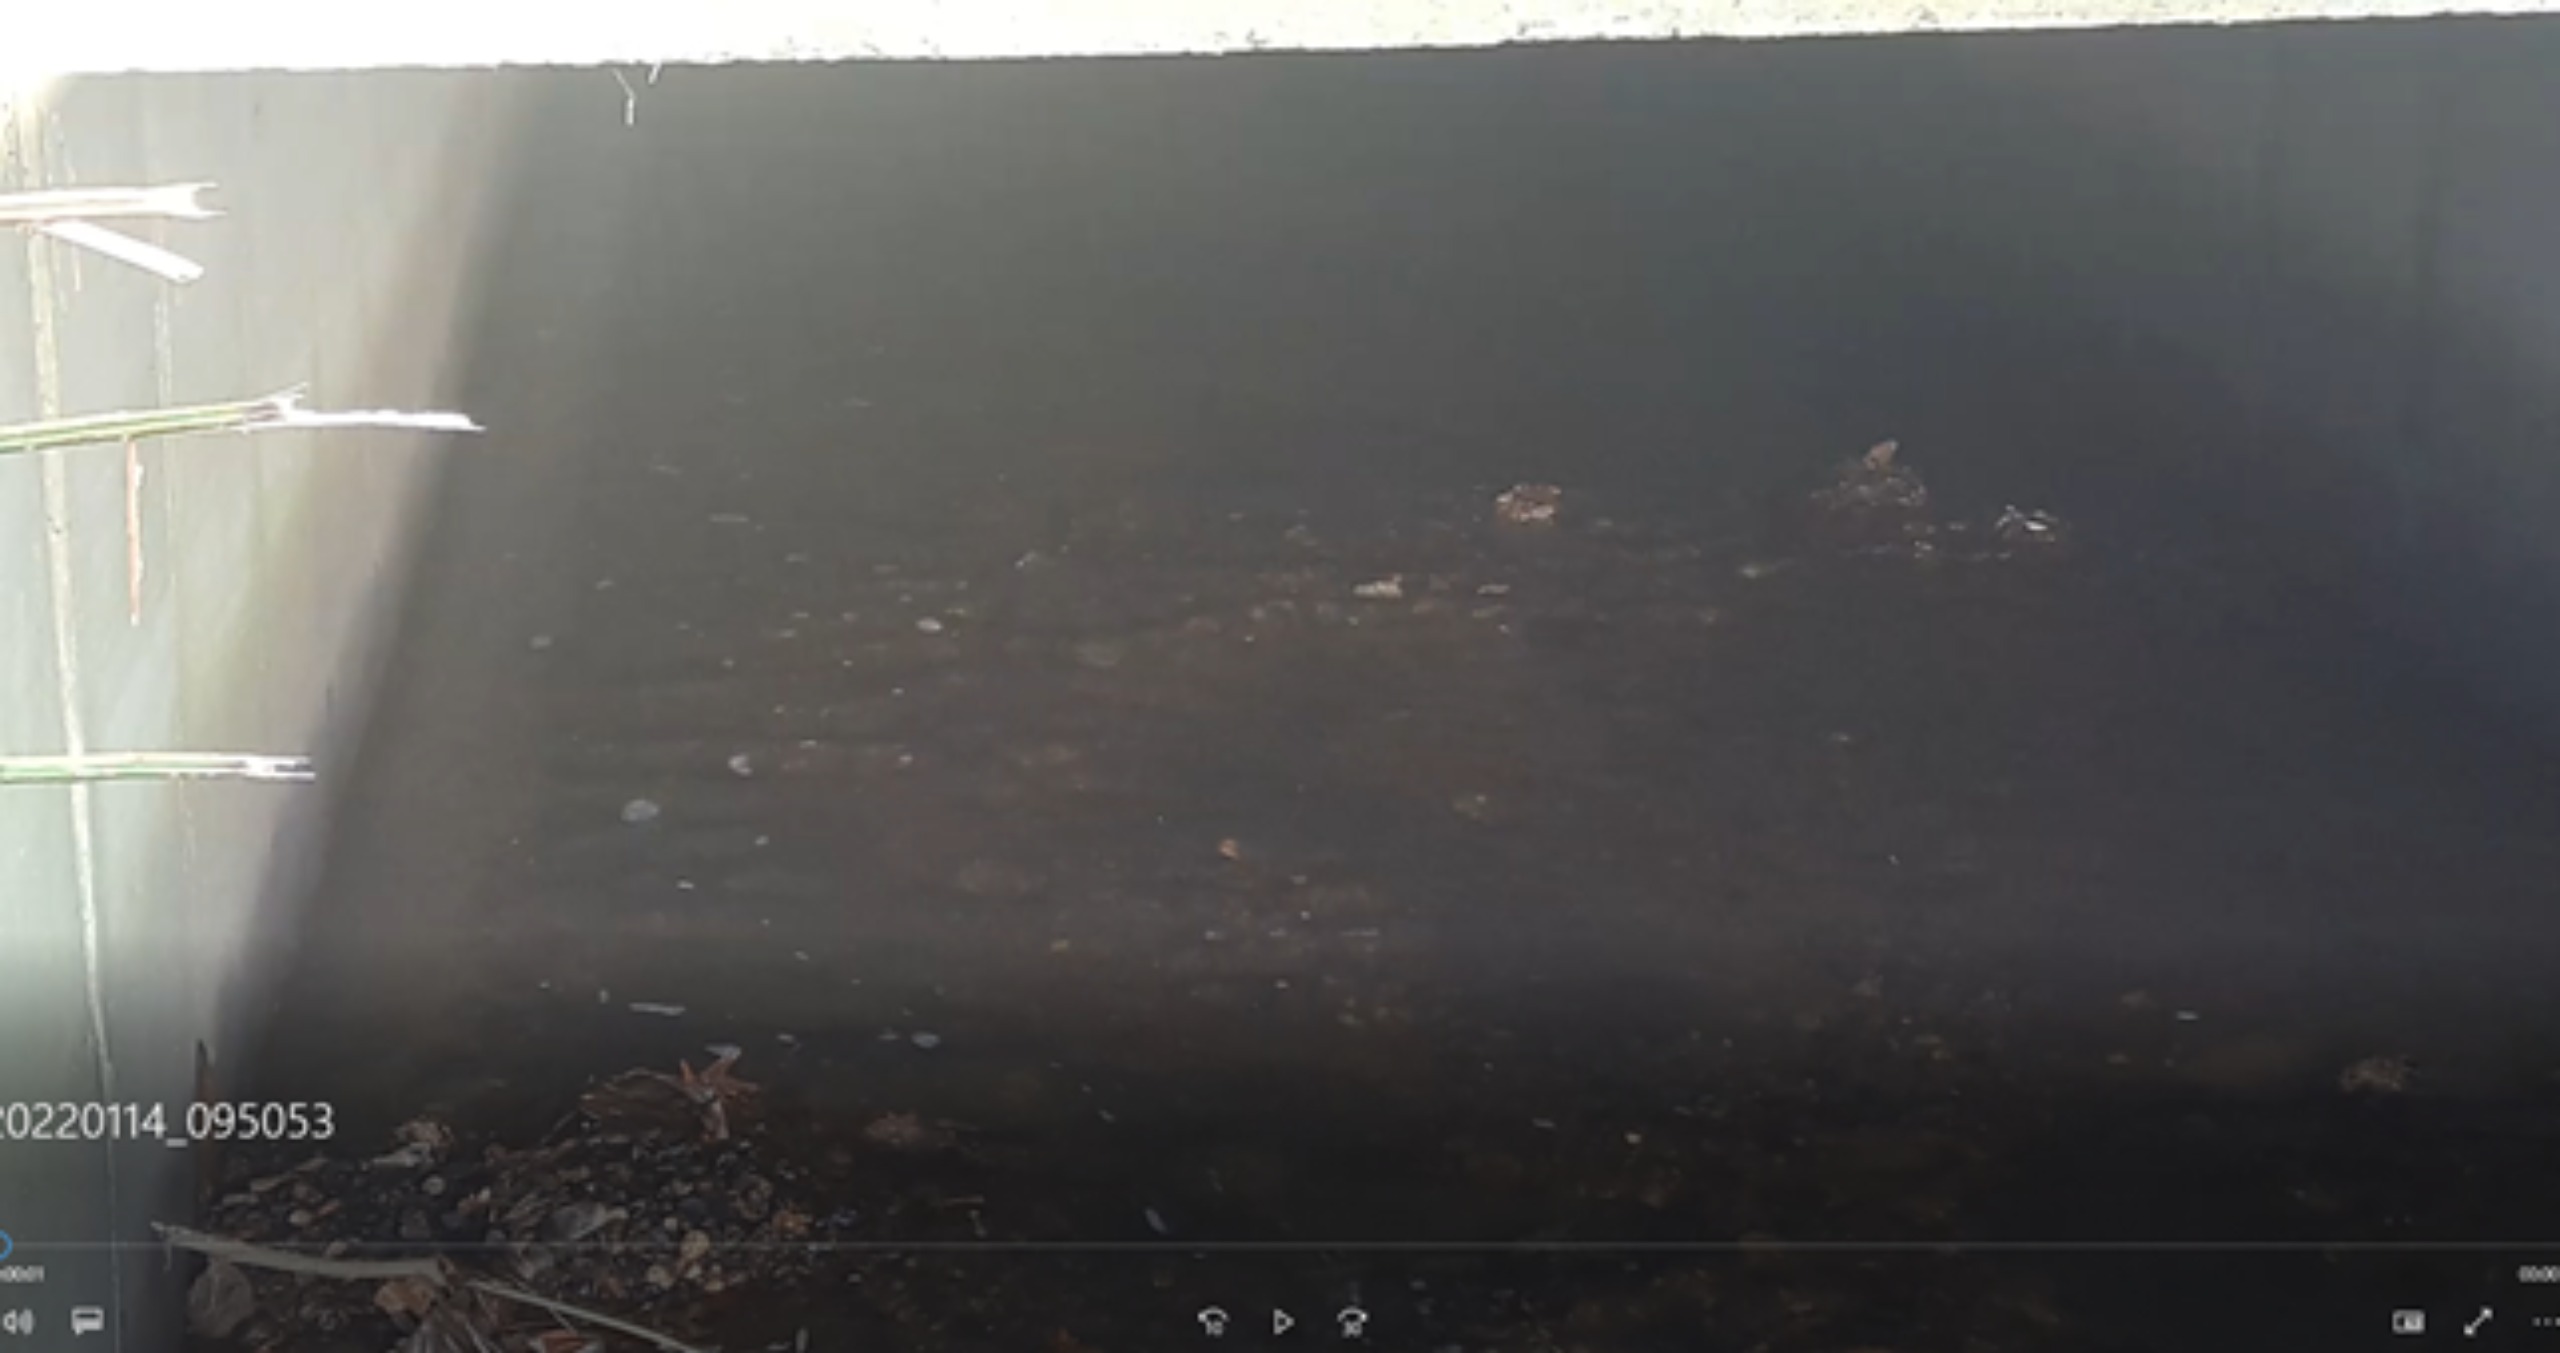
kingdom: Animalia
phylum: Chordata
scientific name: Chordata
